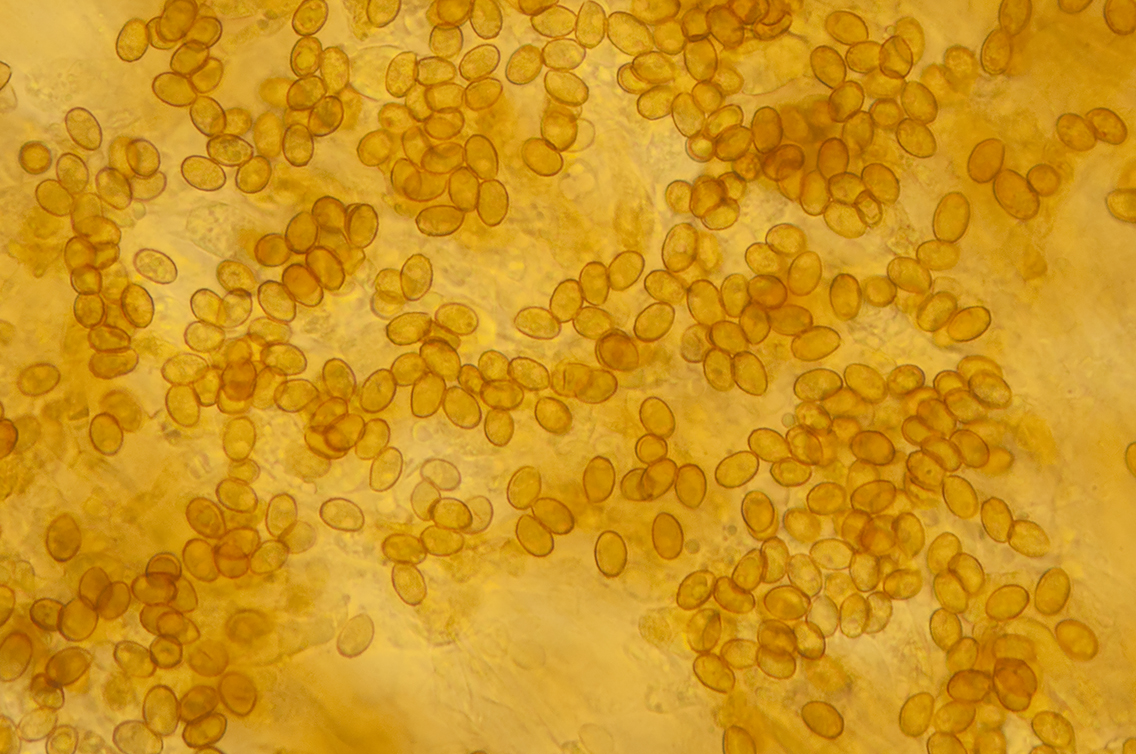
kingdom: Fungi
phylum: Basidiomycota
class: Agaricomycetes
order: Agaricales
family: Cortinariaceae
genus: Cortinarius
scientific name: Cortinarius americanus
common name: natsort slørhat
